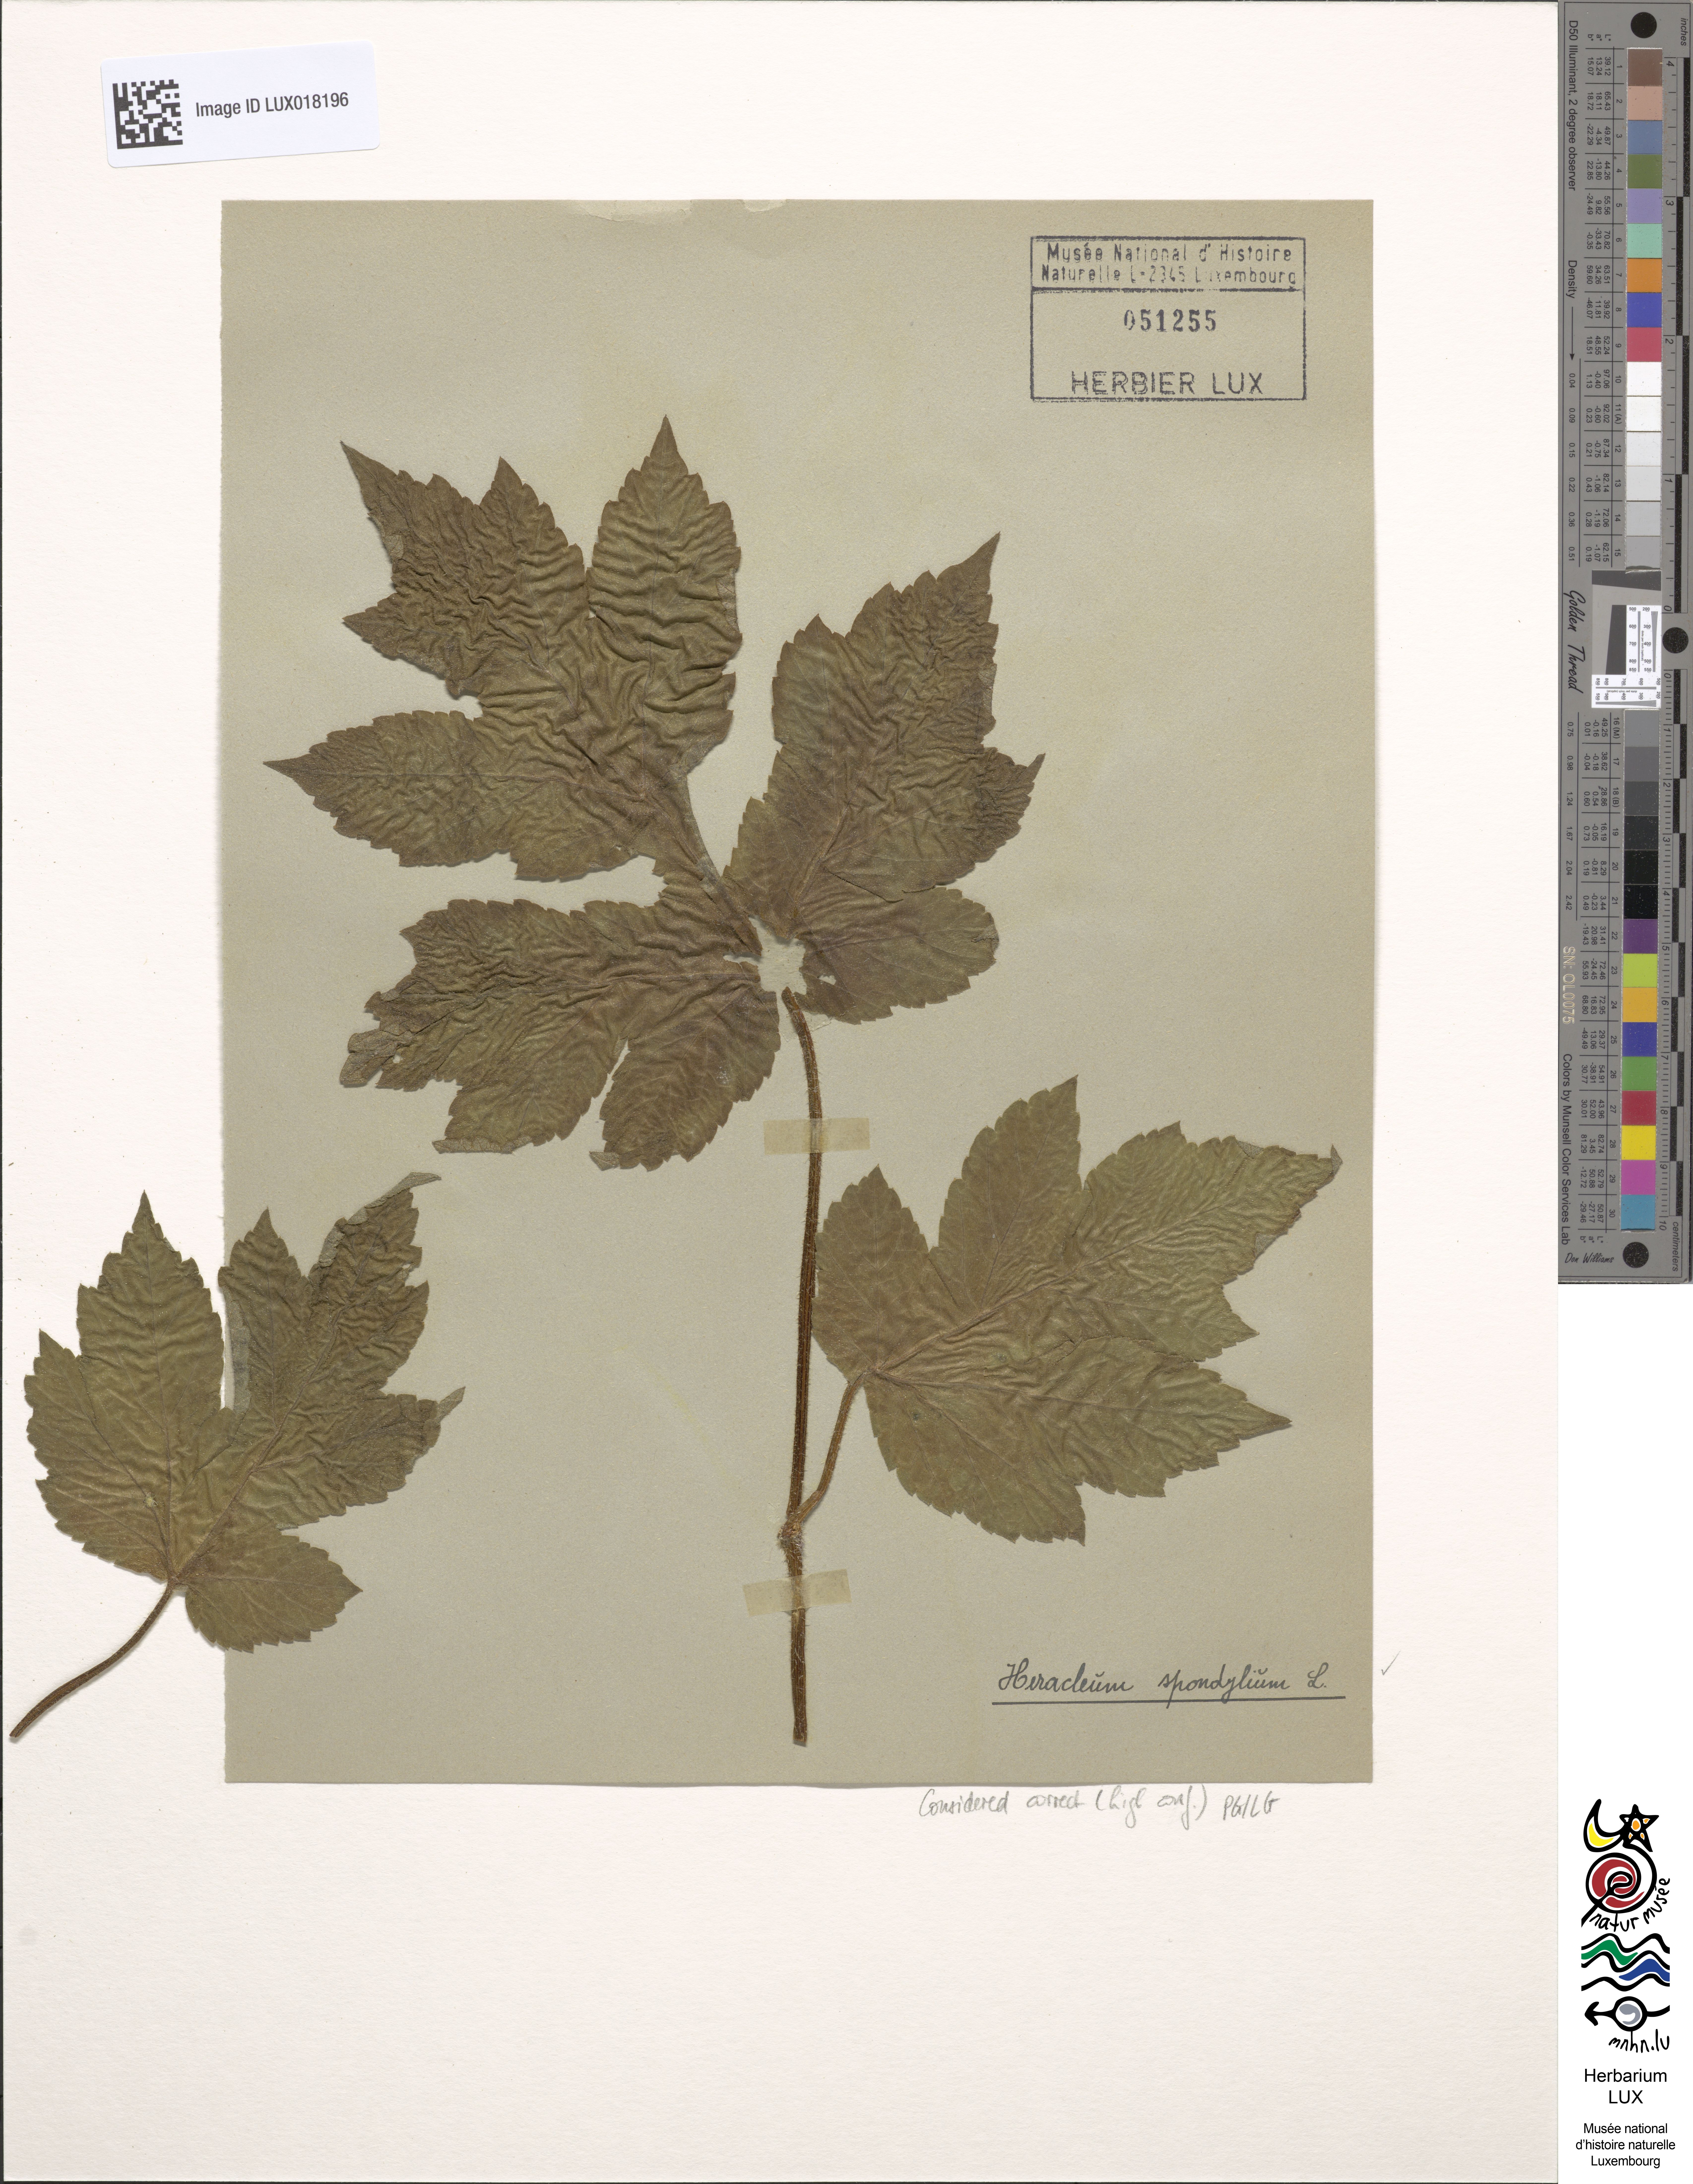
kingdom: Plantae
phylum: Tracheophyta
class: Magnoliopsida
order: Apiales
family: Apiaceae
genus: Heracleum
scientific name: Heracleum sphondylium
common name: Hogweed
